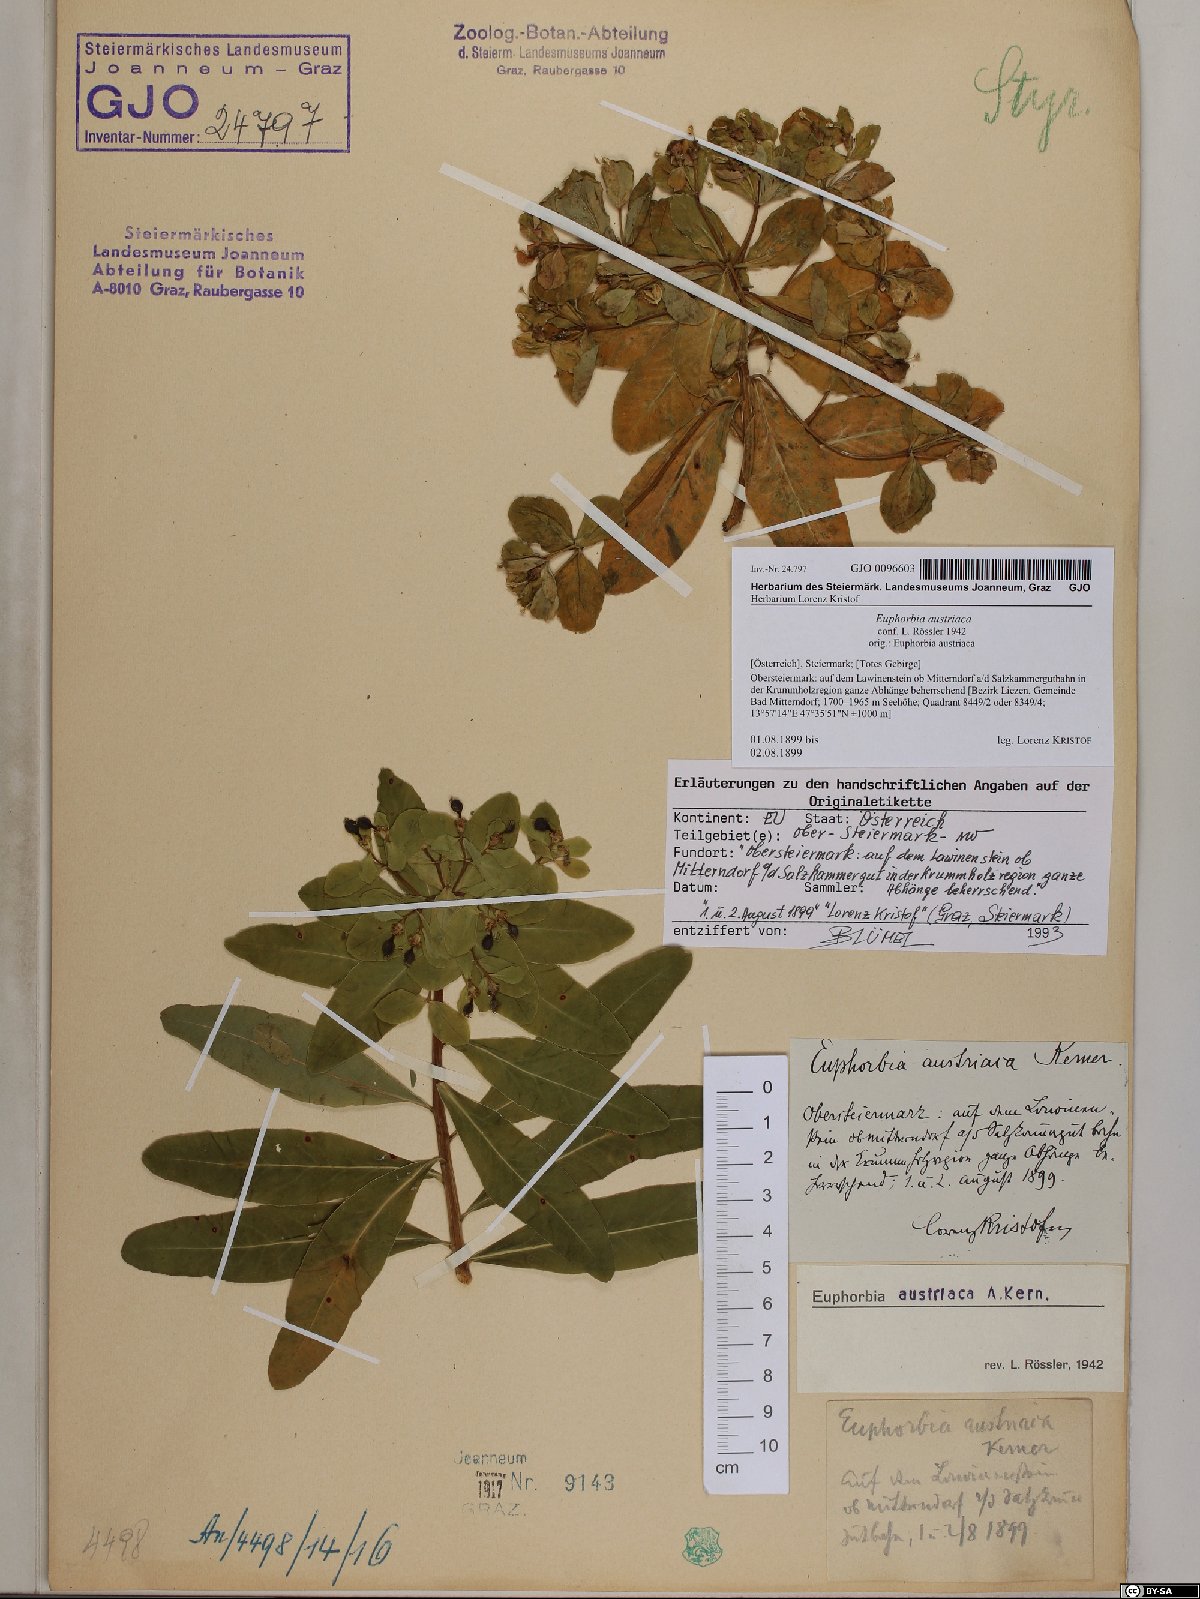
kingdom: Plantae
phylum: Tracheophyta
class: Magnoliopsida
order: Malpighiales
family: Euphorbiaceae
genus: Euphorbia
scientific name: Euphorbia austriaca
